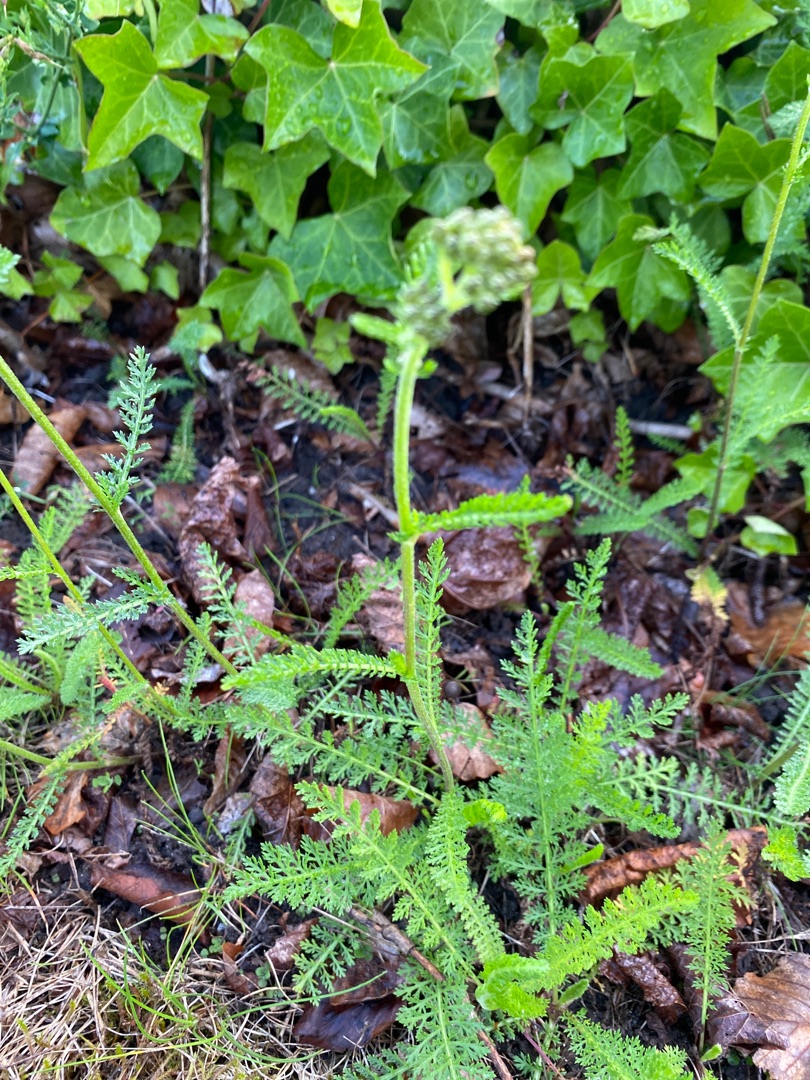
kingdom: Plantae
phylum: Tracheophyta
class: Magnoliopsida
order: Asterales
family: Asteraceae
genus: Achillea
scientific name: Achillea millefolium
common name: Almindelig røllike
